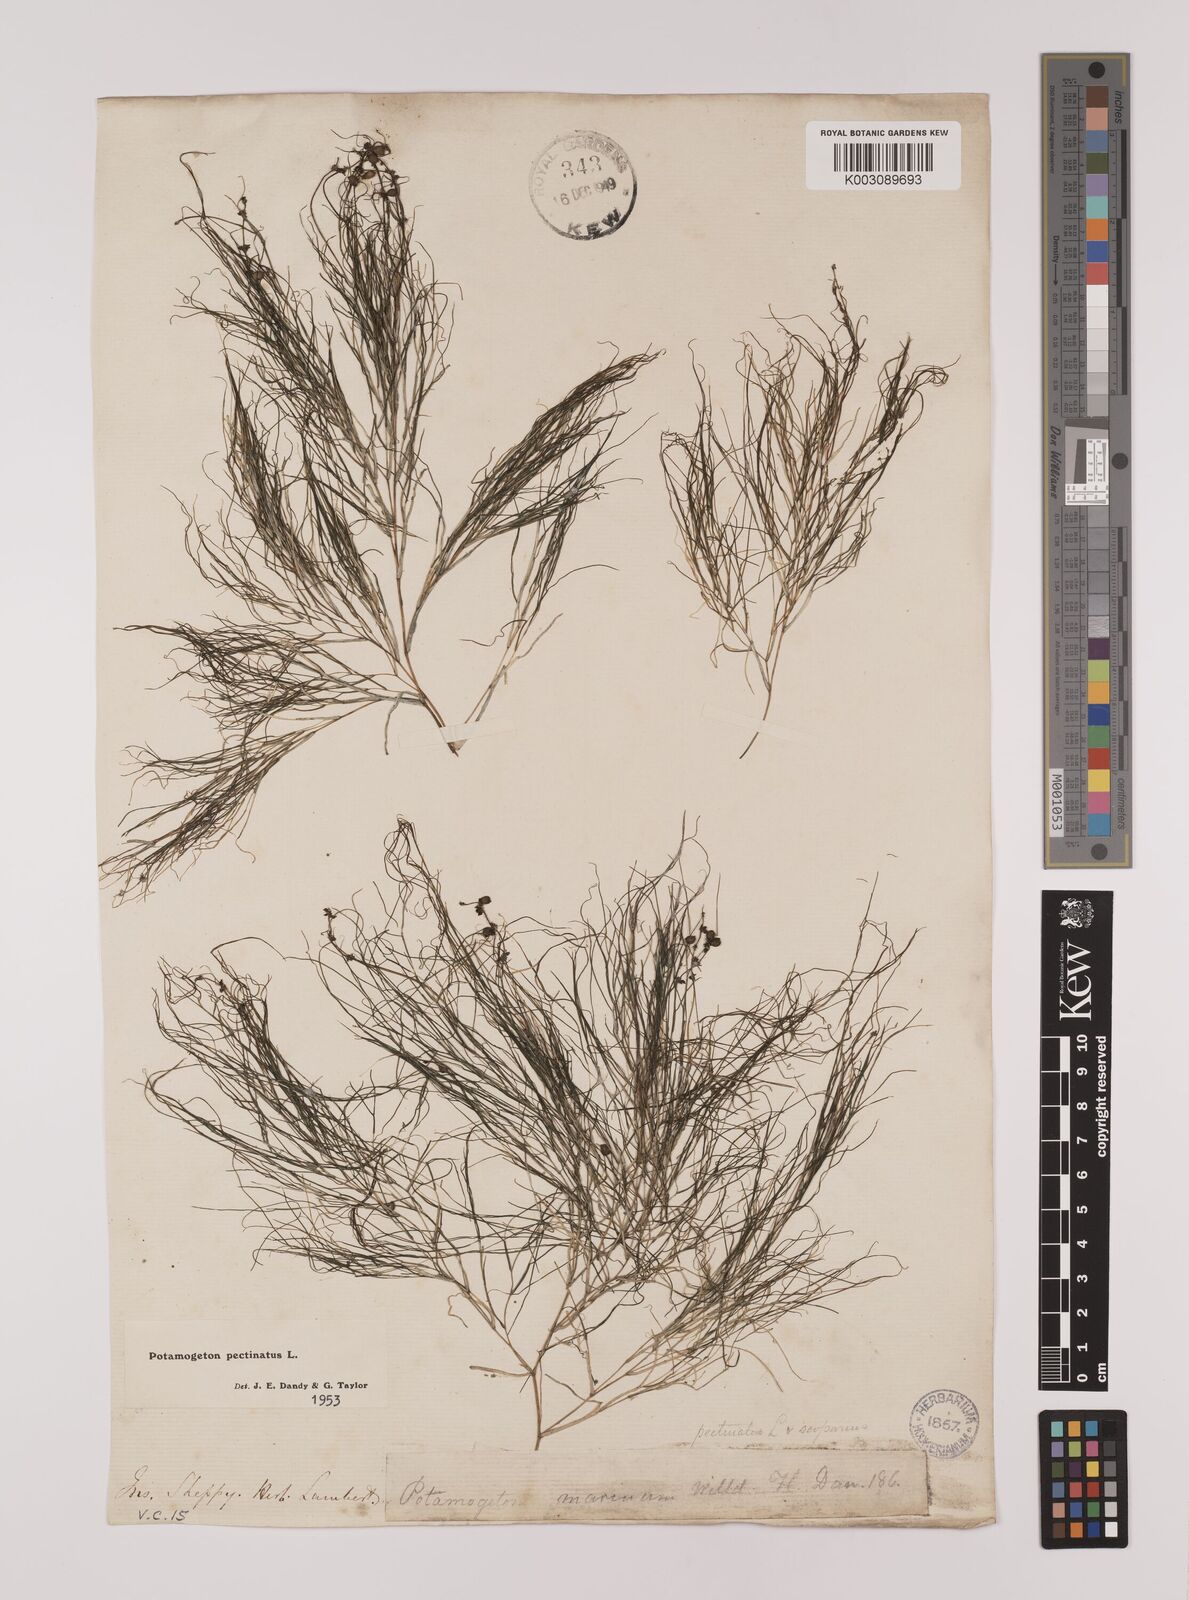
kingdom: Plantae
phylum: Tracheophyta
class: Liliopsida
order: Alismatales
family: Potamogetonaceae
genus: Stuckenia
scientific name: Stuckenia pectinata
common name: Sago pondweed
